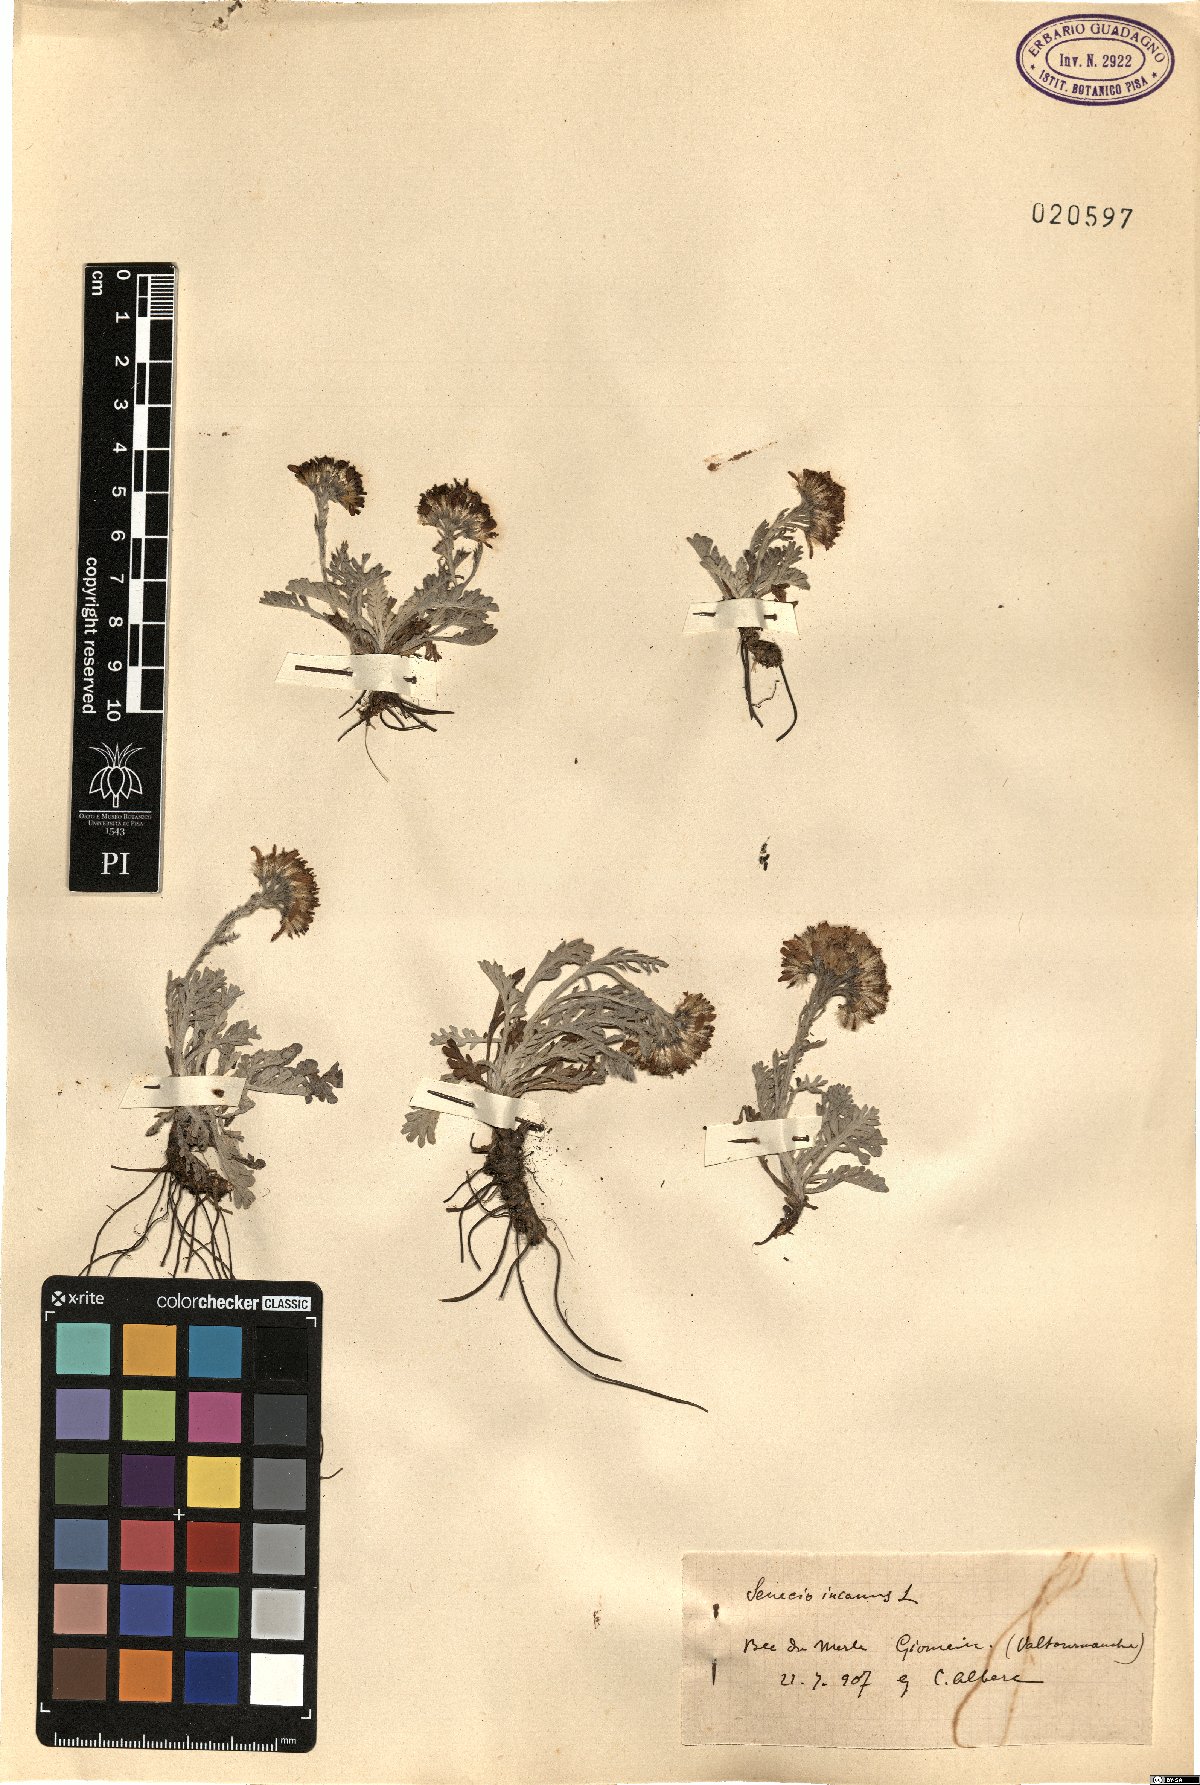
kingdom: Plantae
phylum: Tracheophyta
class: Magnoliopsida
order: Asterales
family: Asteraceae
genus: Jacobaea
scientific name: Jacobaea incana
